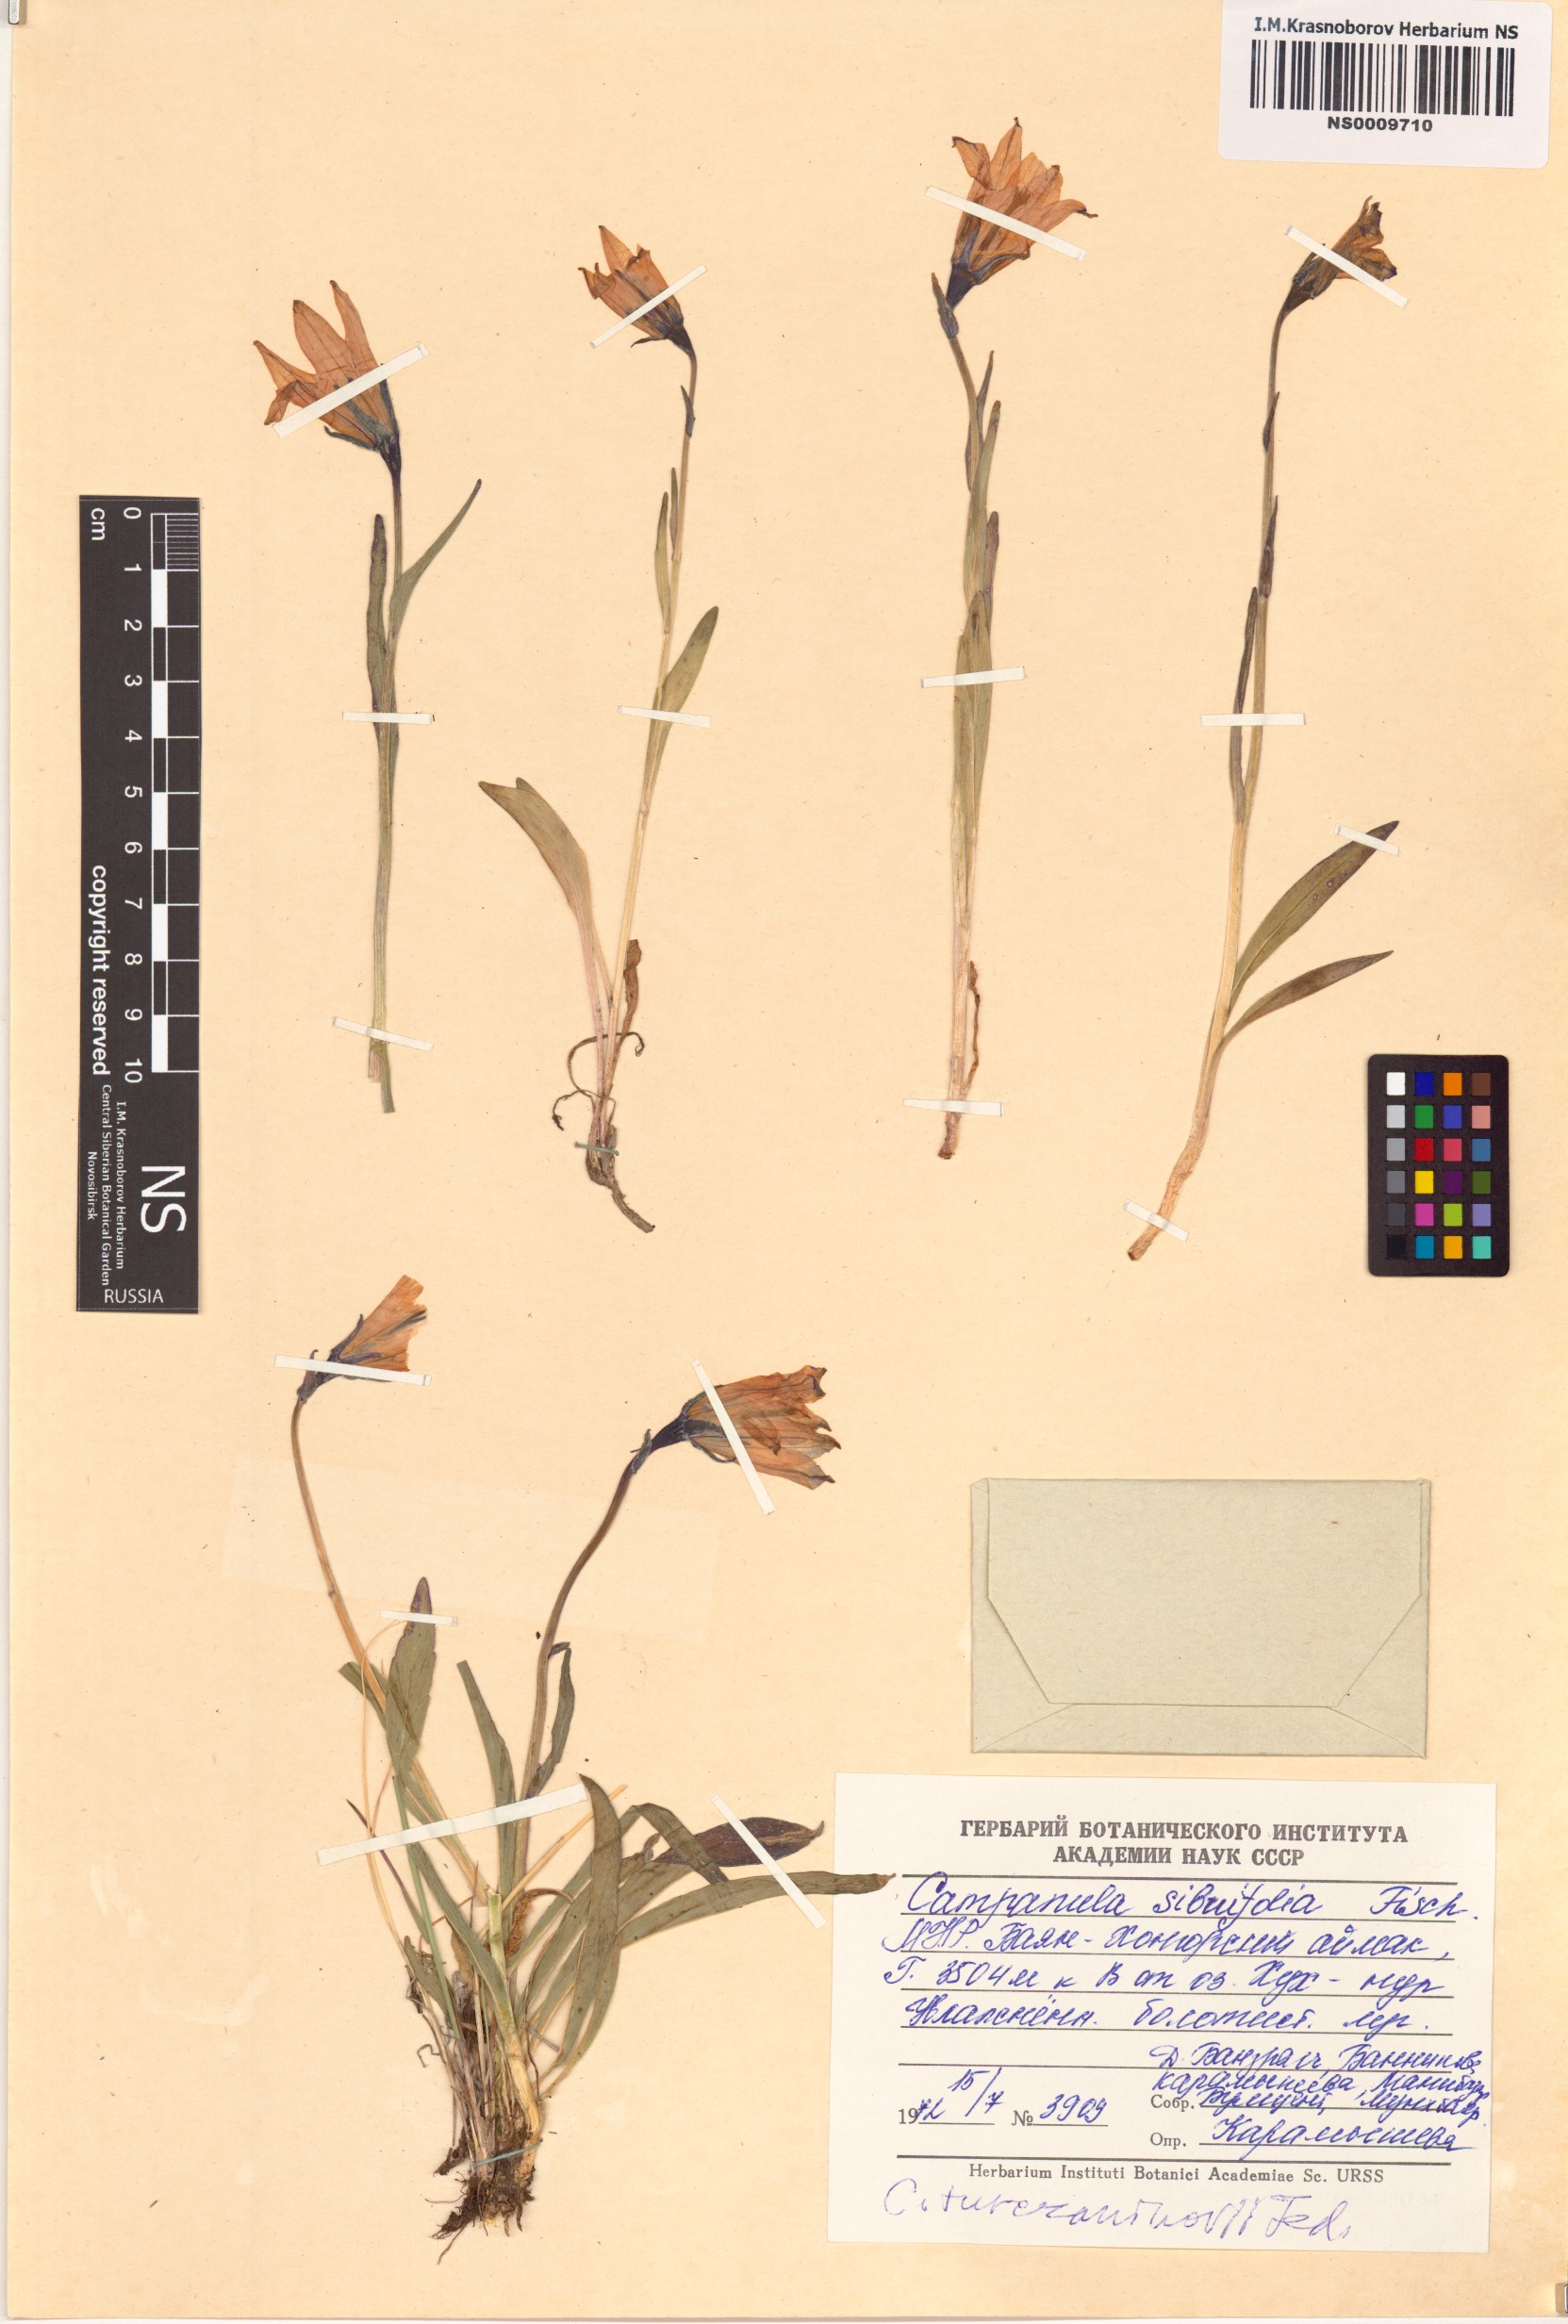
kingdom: Plantae
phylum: Tracheophyta
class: Magnoliopsida
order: Asterales
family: Campanulaceae
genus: Campanula
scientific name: Campanula stevenii
